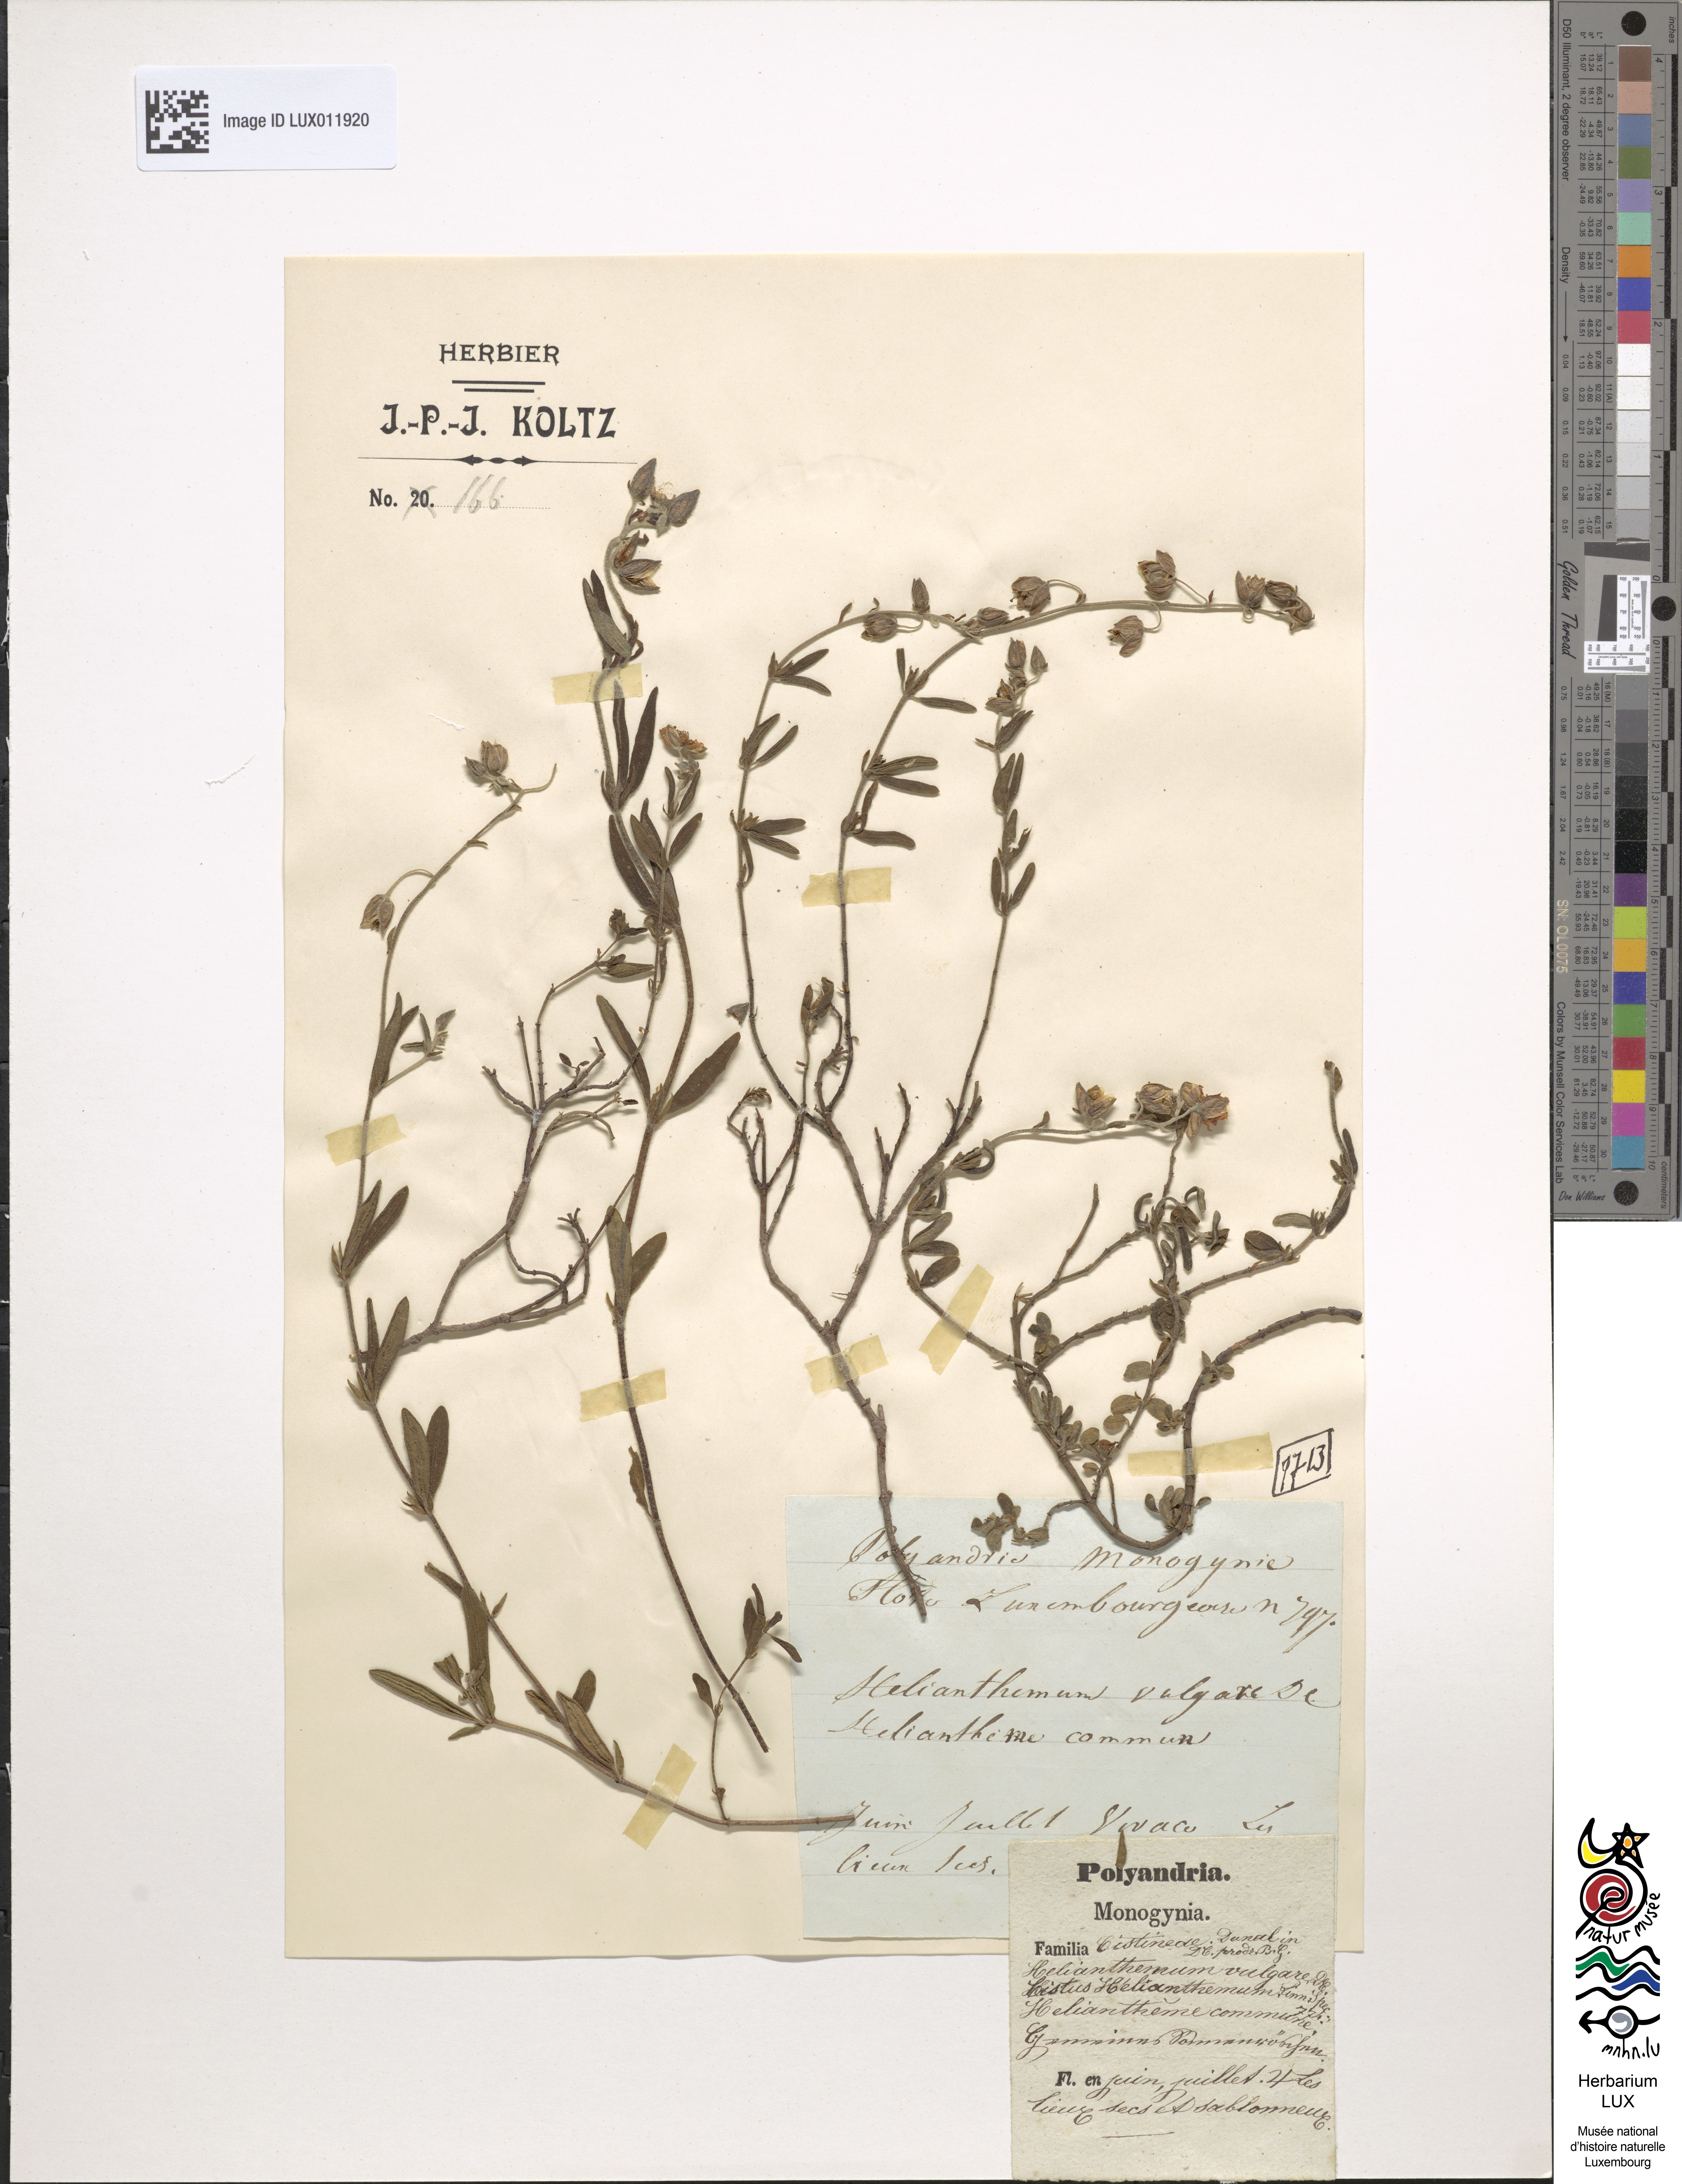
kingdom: Plantae
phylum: Tracheophyta
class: Magnoliopsida
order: Malvales
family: Cistaceae
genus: Helianthemum
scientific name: Helianthemum nummularium
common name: Common rock-rose
